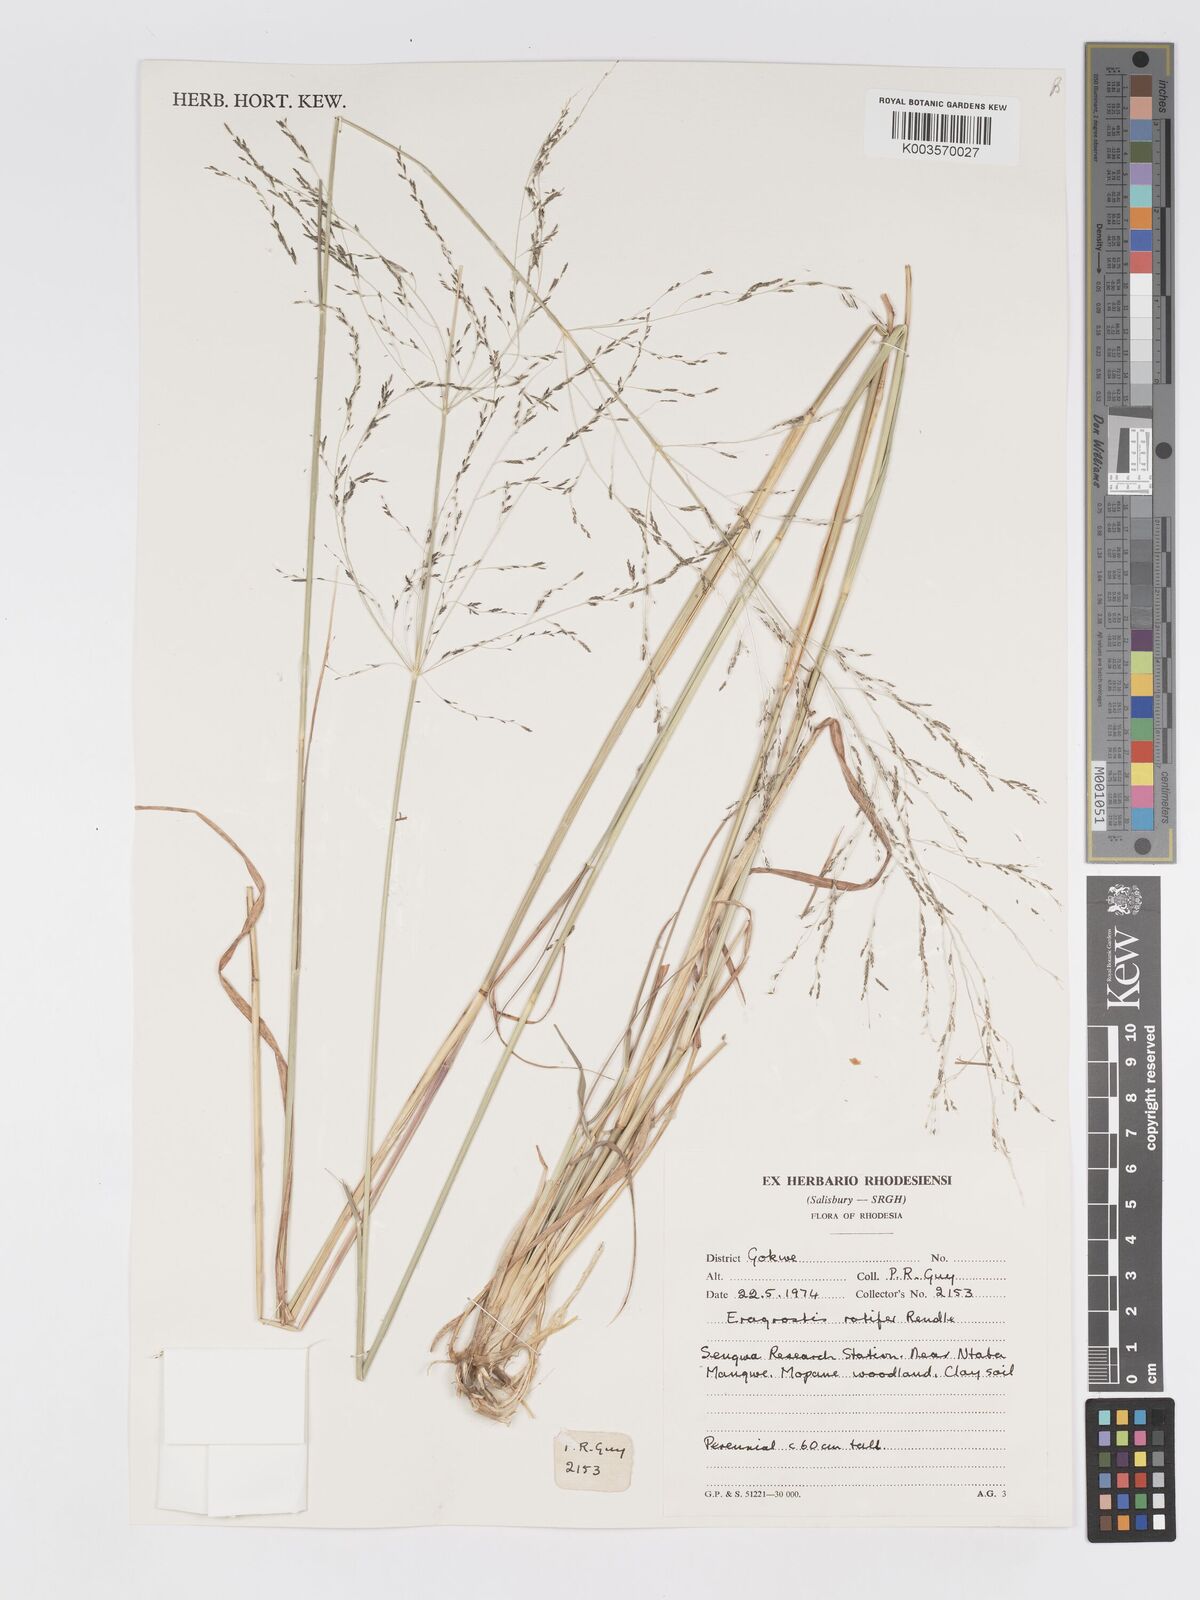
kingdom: Plantae
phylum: Tracheophyta
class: Liliopsida
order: Poales
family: Poaceae
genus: Eragrostis
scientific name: Eragrostis rotifer
